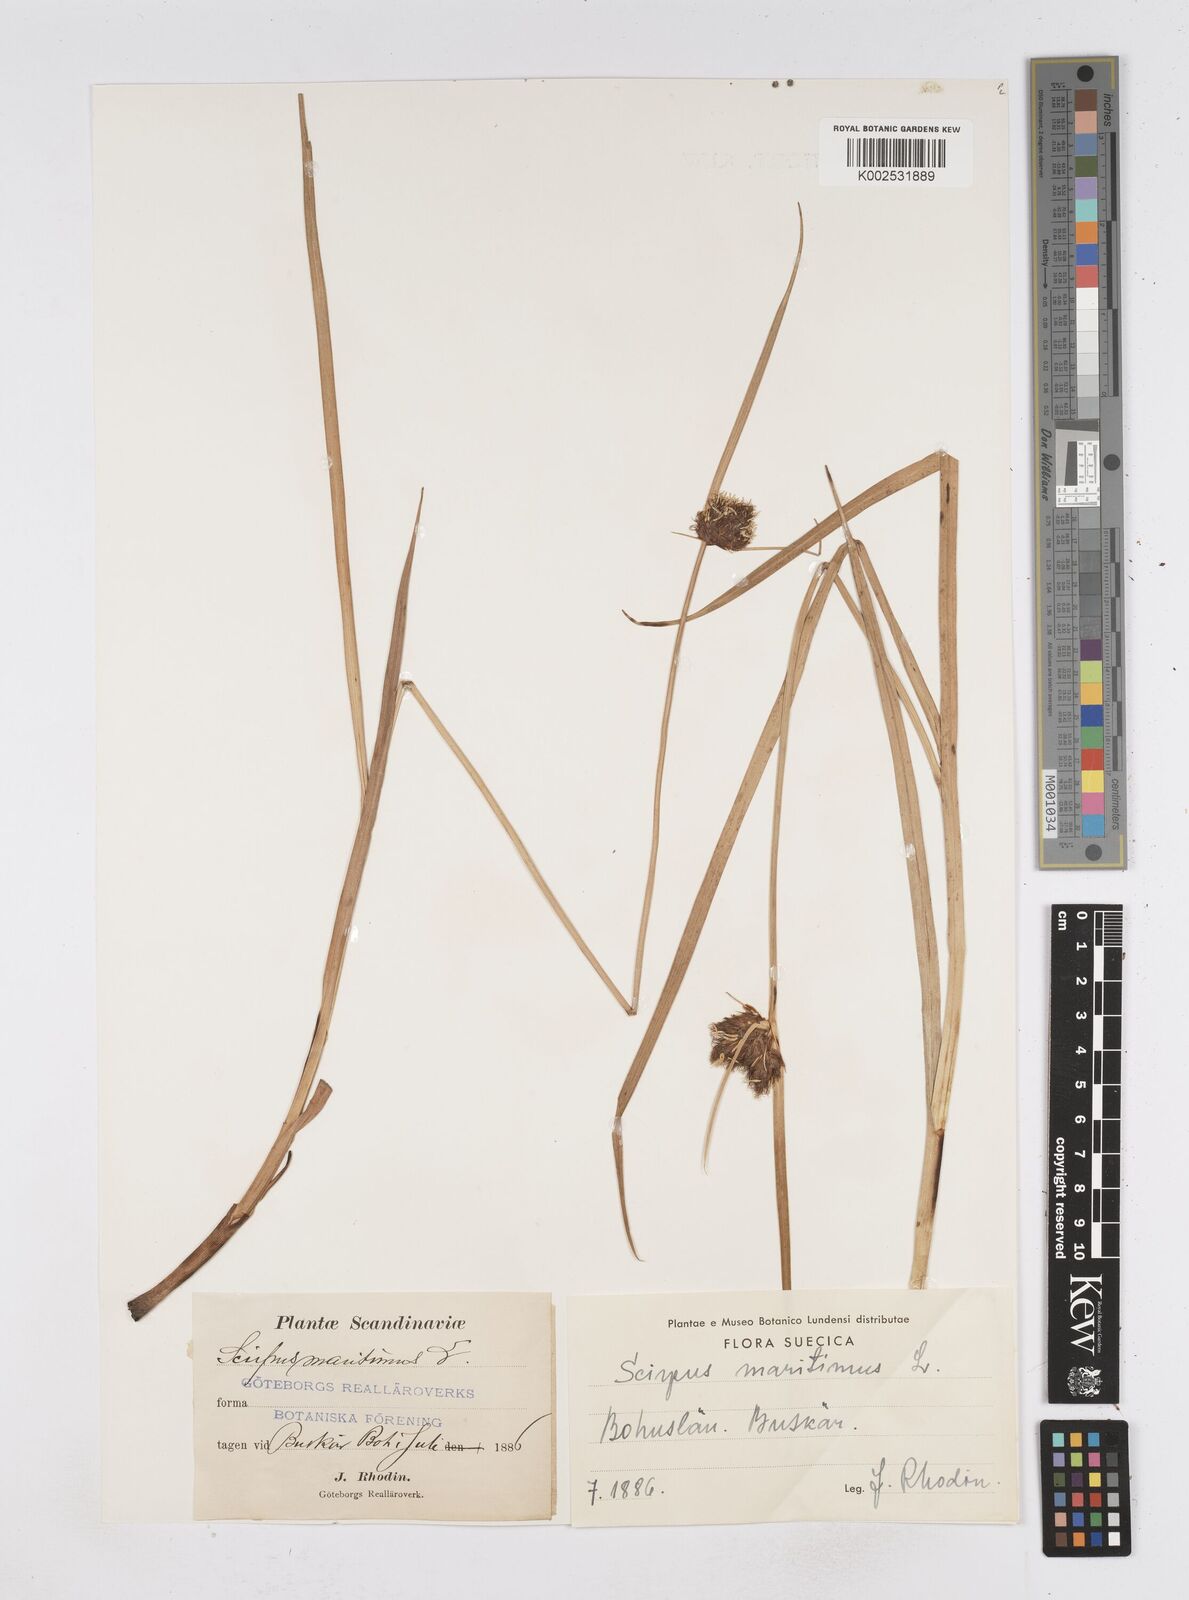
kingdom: Plantae
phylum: Tracheophyta
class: Liliopsida
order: Poales
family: Cyperaceae
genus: Bolboschoenus
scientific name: Bolboschoenus maritimus
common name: Sea club-rush
